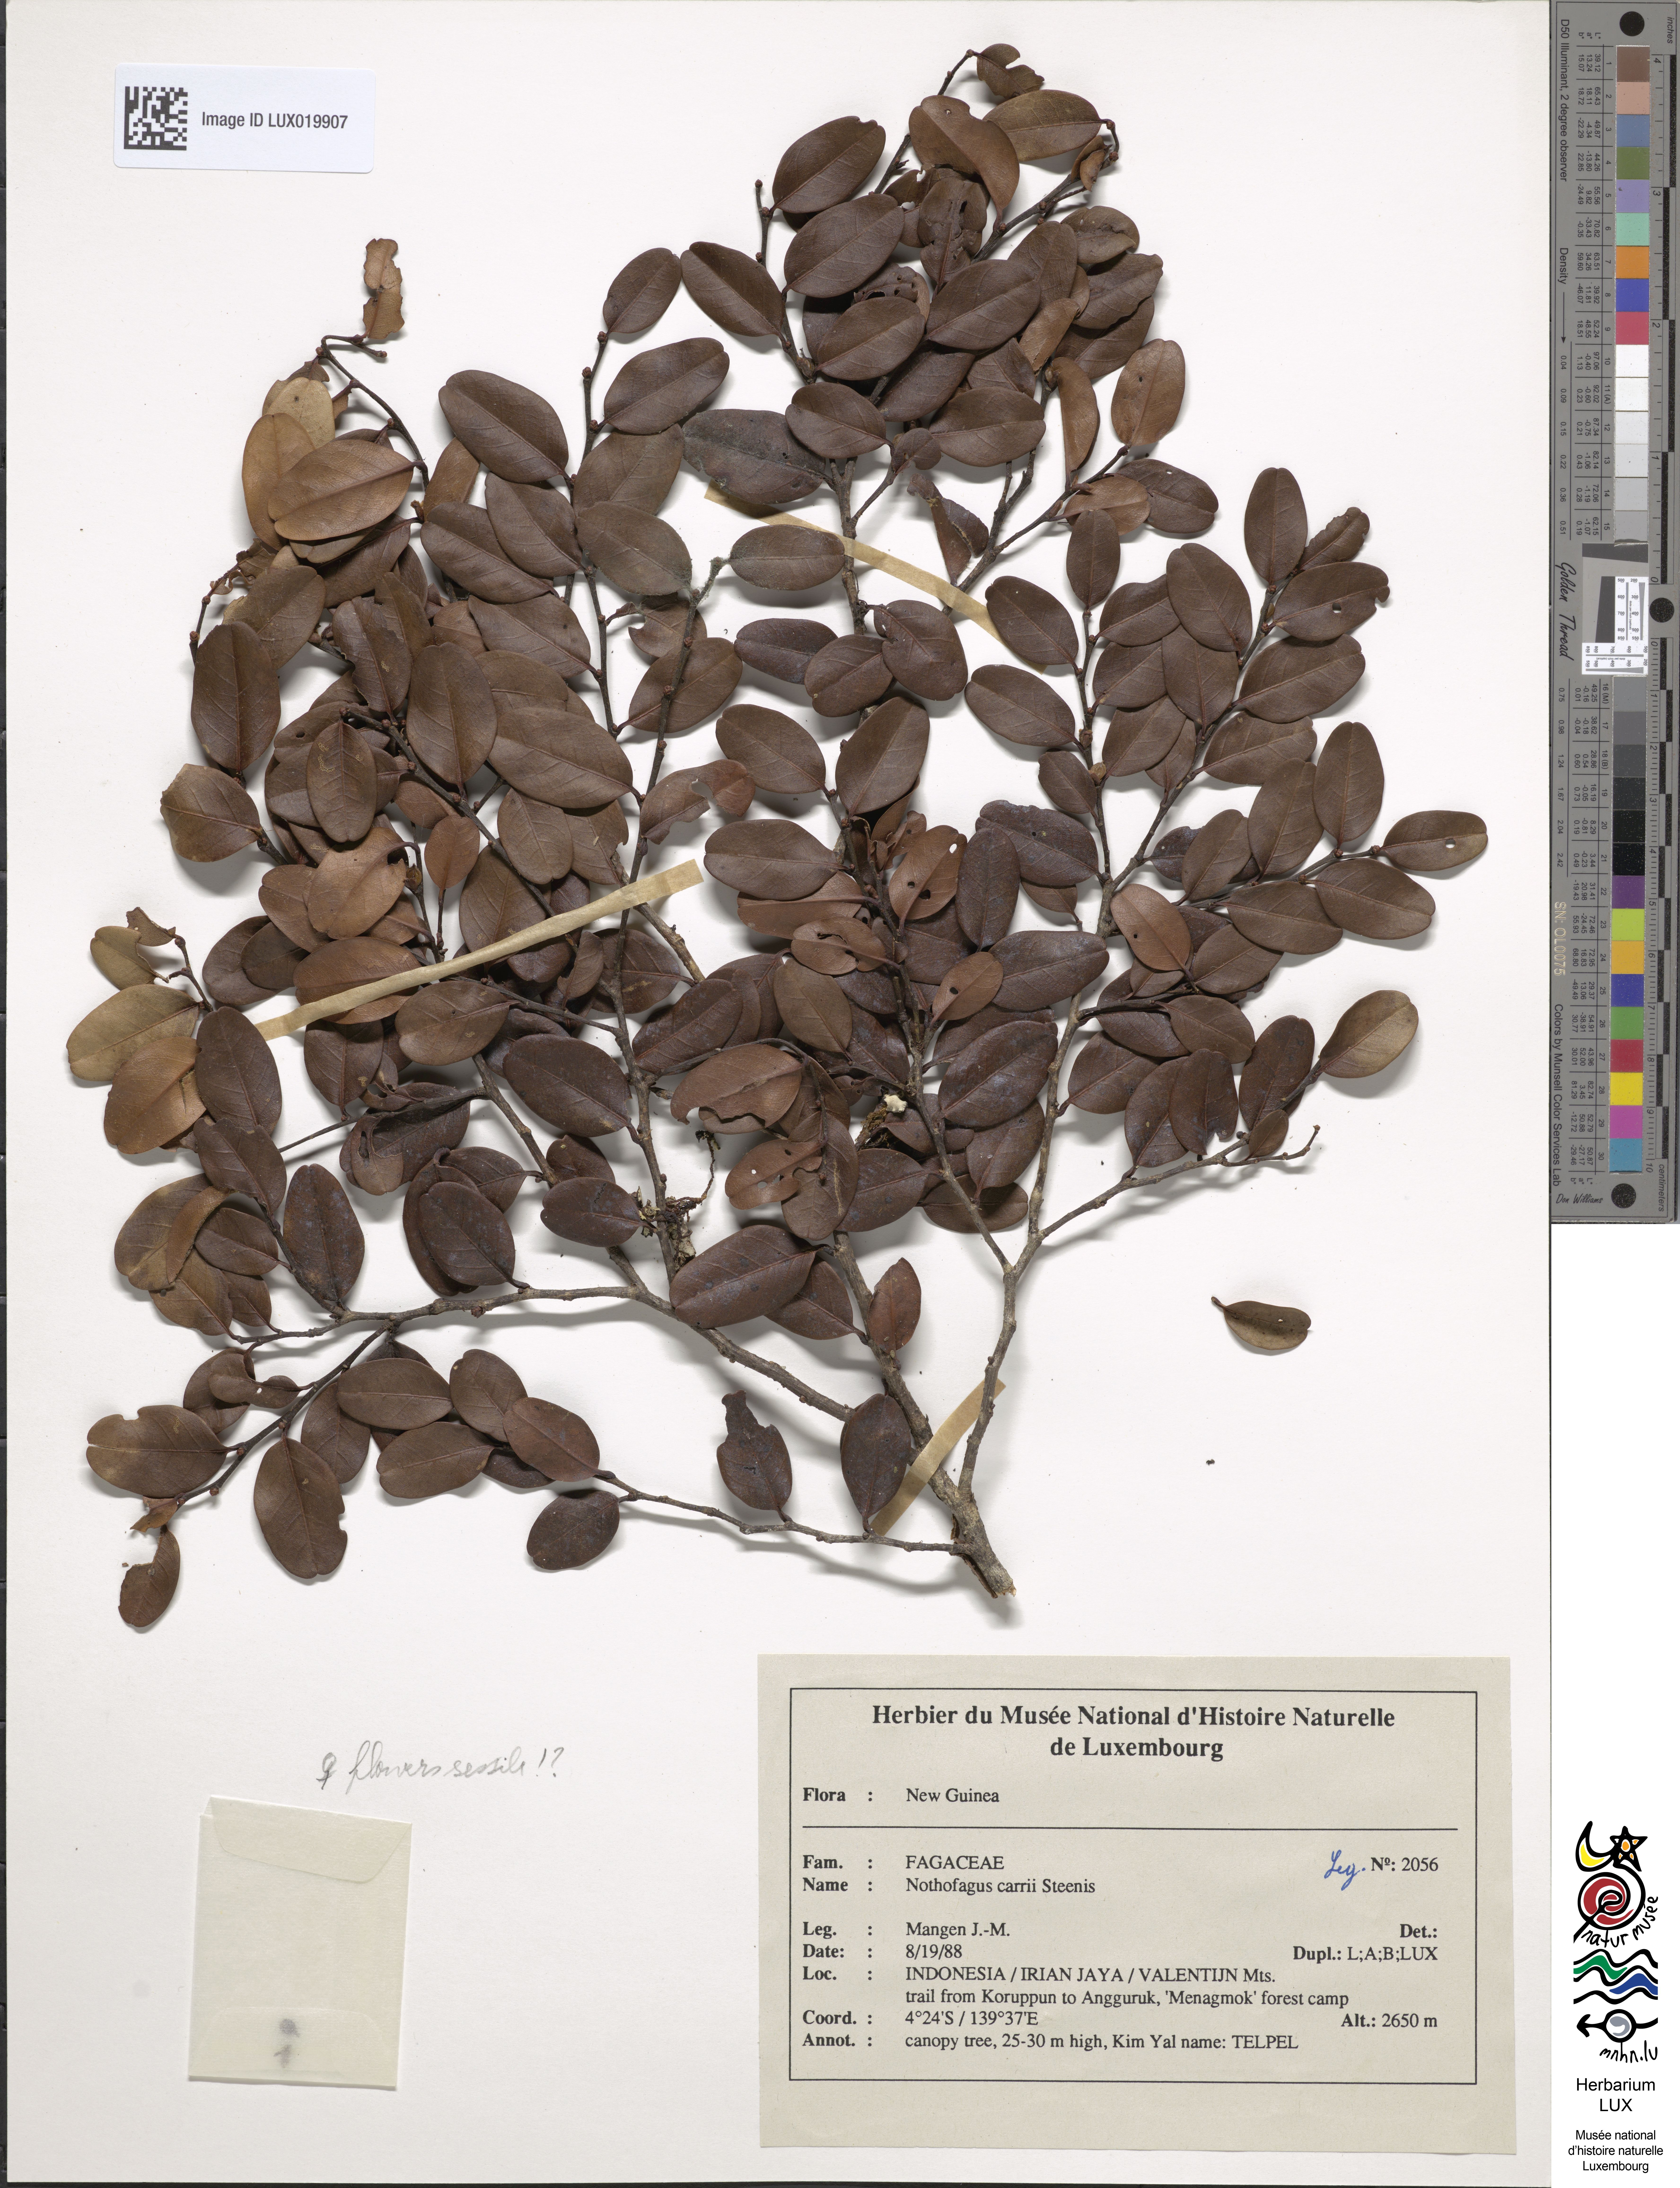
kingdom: Plantae
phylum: Tracheophyta
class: Magnoliopsida
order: Fagales
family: Nothofagaceae
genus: Nothofagus
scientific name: Nothofagus carrii
